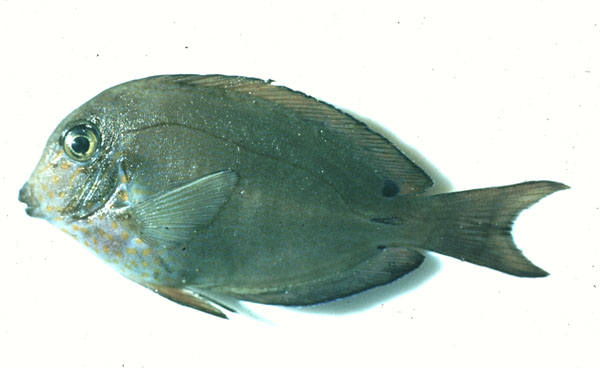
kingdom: Animalia
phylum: Chordata
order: Perciformes
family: Acanthuridae
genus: Acanthurus
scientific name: Acanthurus mata
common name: Bleeker's surgeonfish
